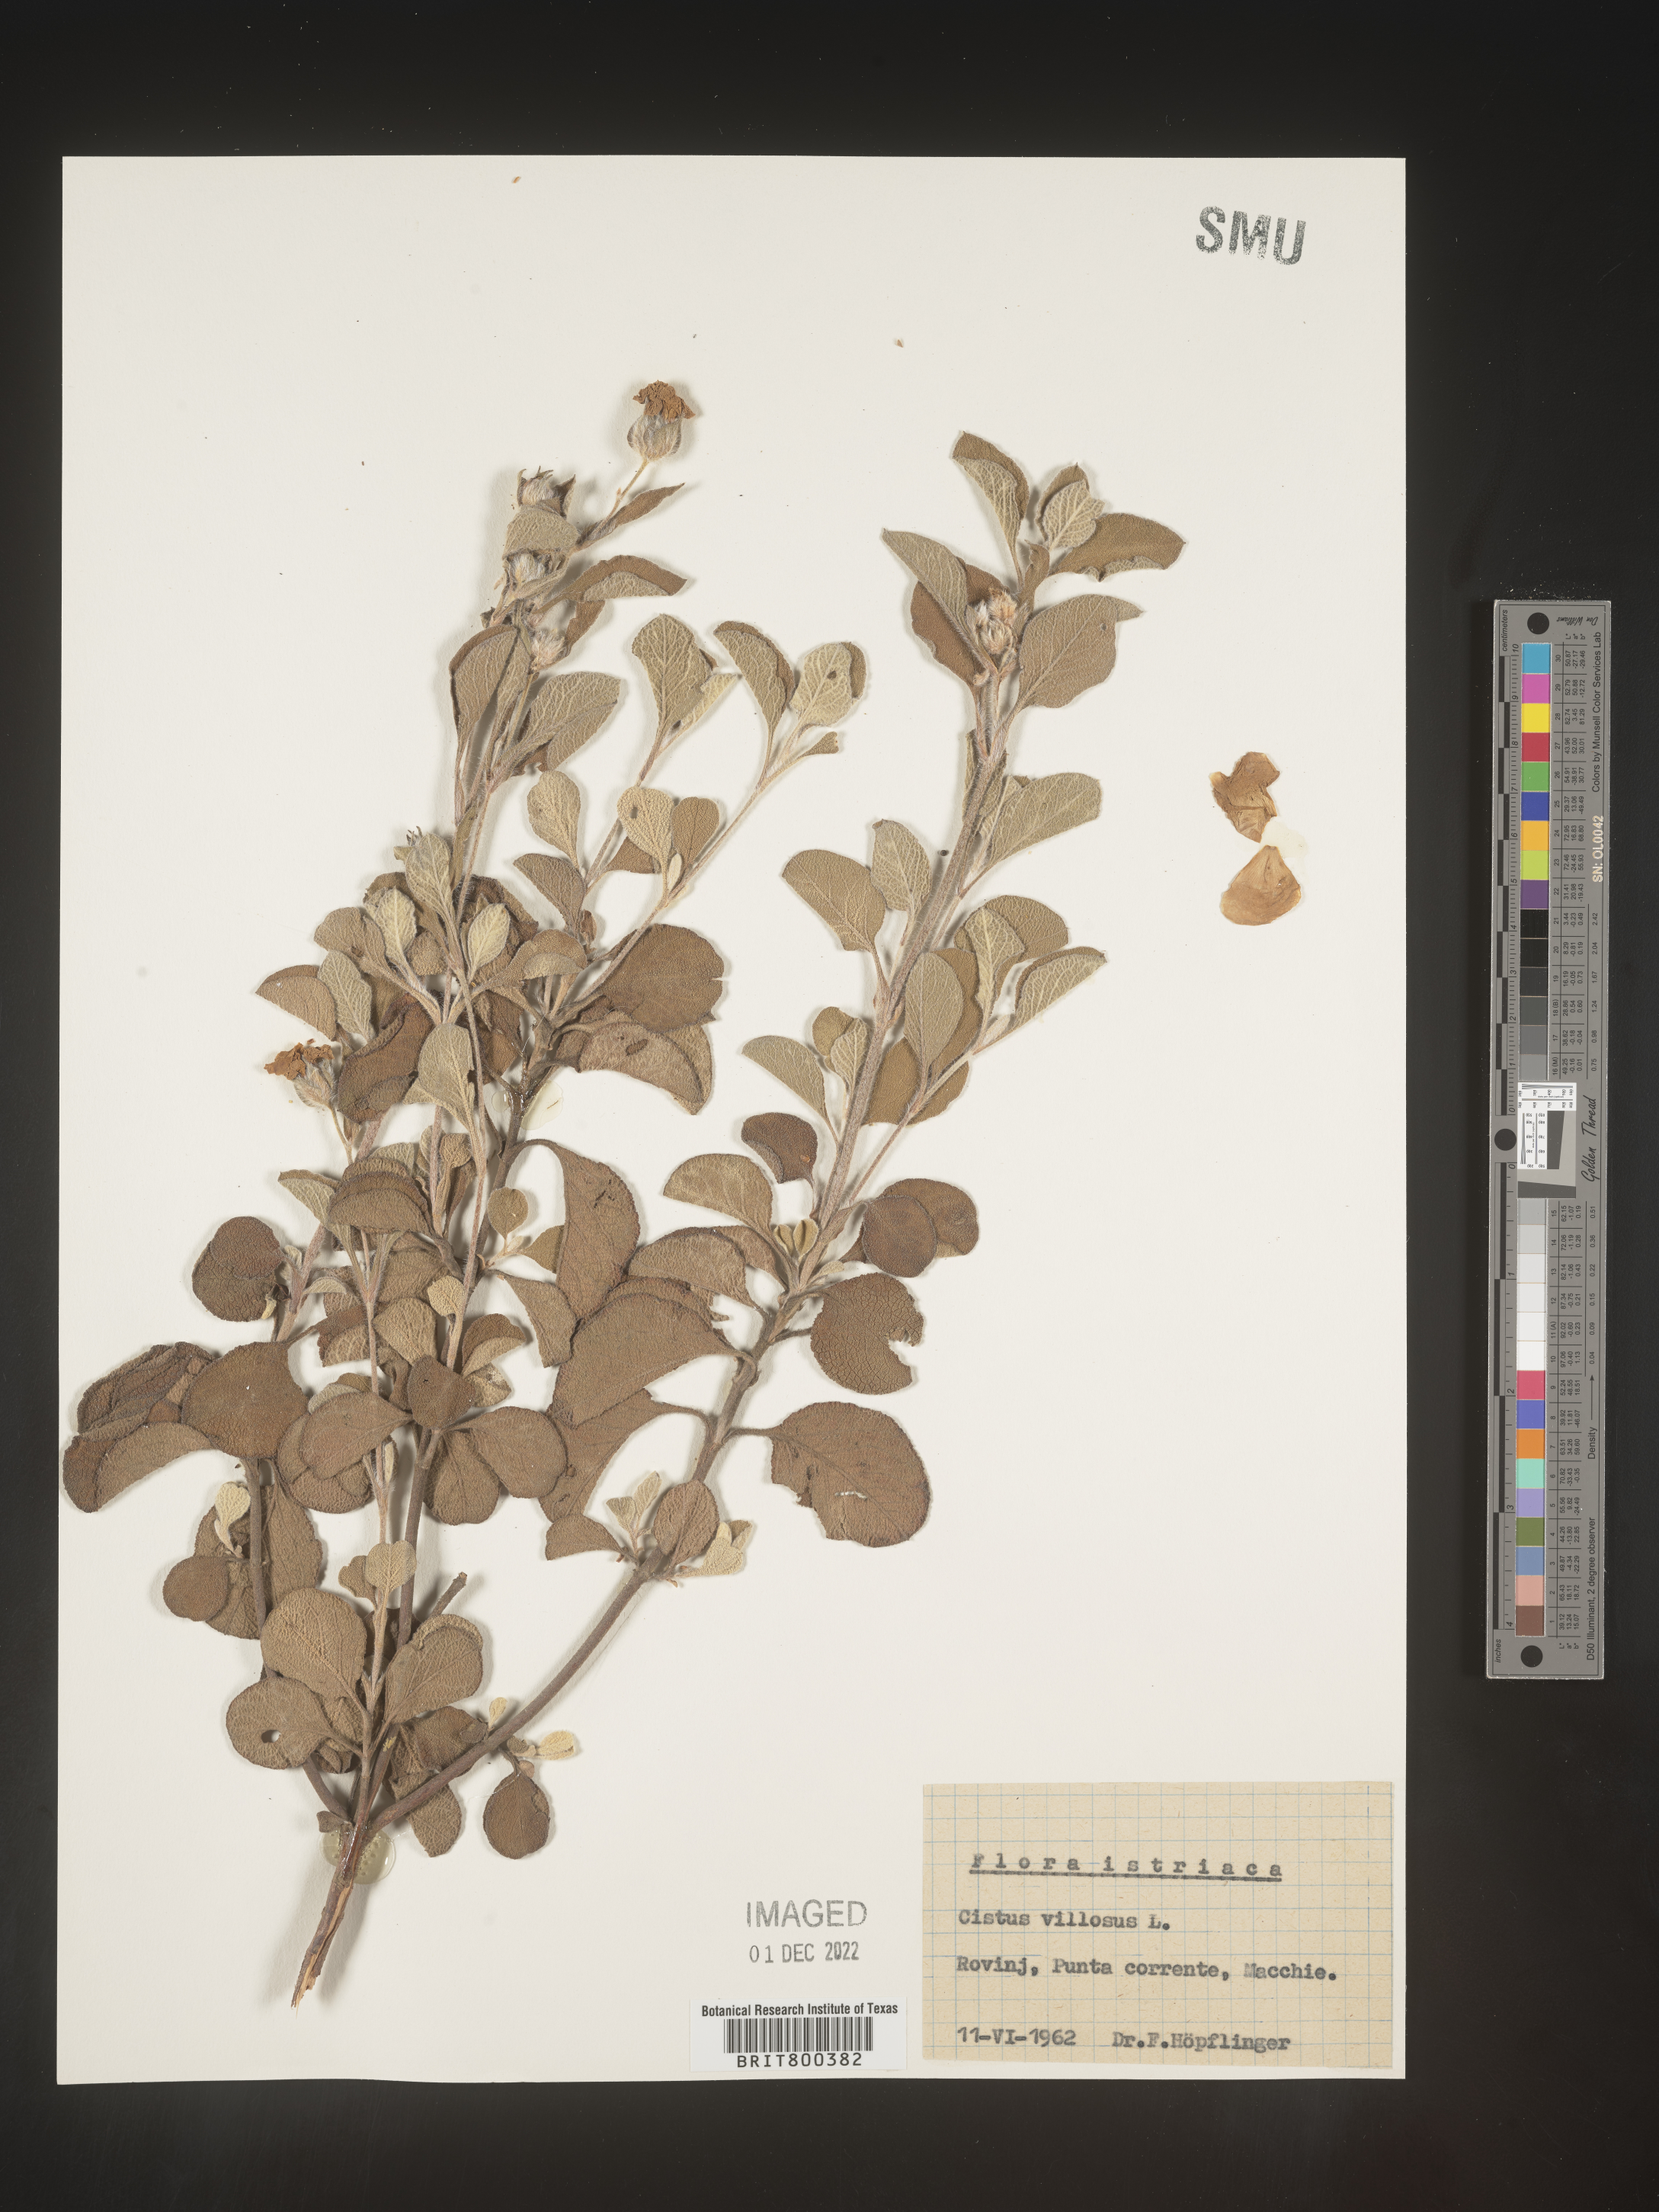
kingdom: Plantae
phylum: Tracheophyta
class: Magnoliopsida
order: Malvales
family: Cistaceae
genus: Cistus
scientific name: Cistus
